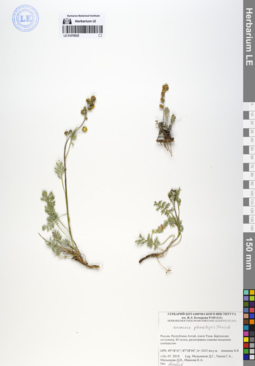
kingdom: Plantae
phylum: Tracheophyta
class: Magnoliopsida
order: Asterales
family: Asteraceae
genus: Artemisia
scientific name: Artemisia phaeolepis
